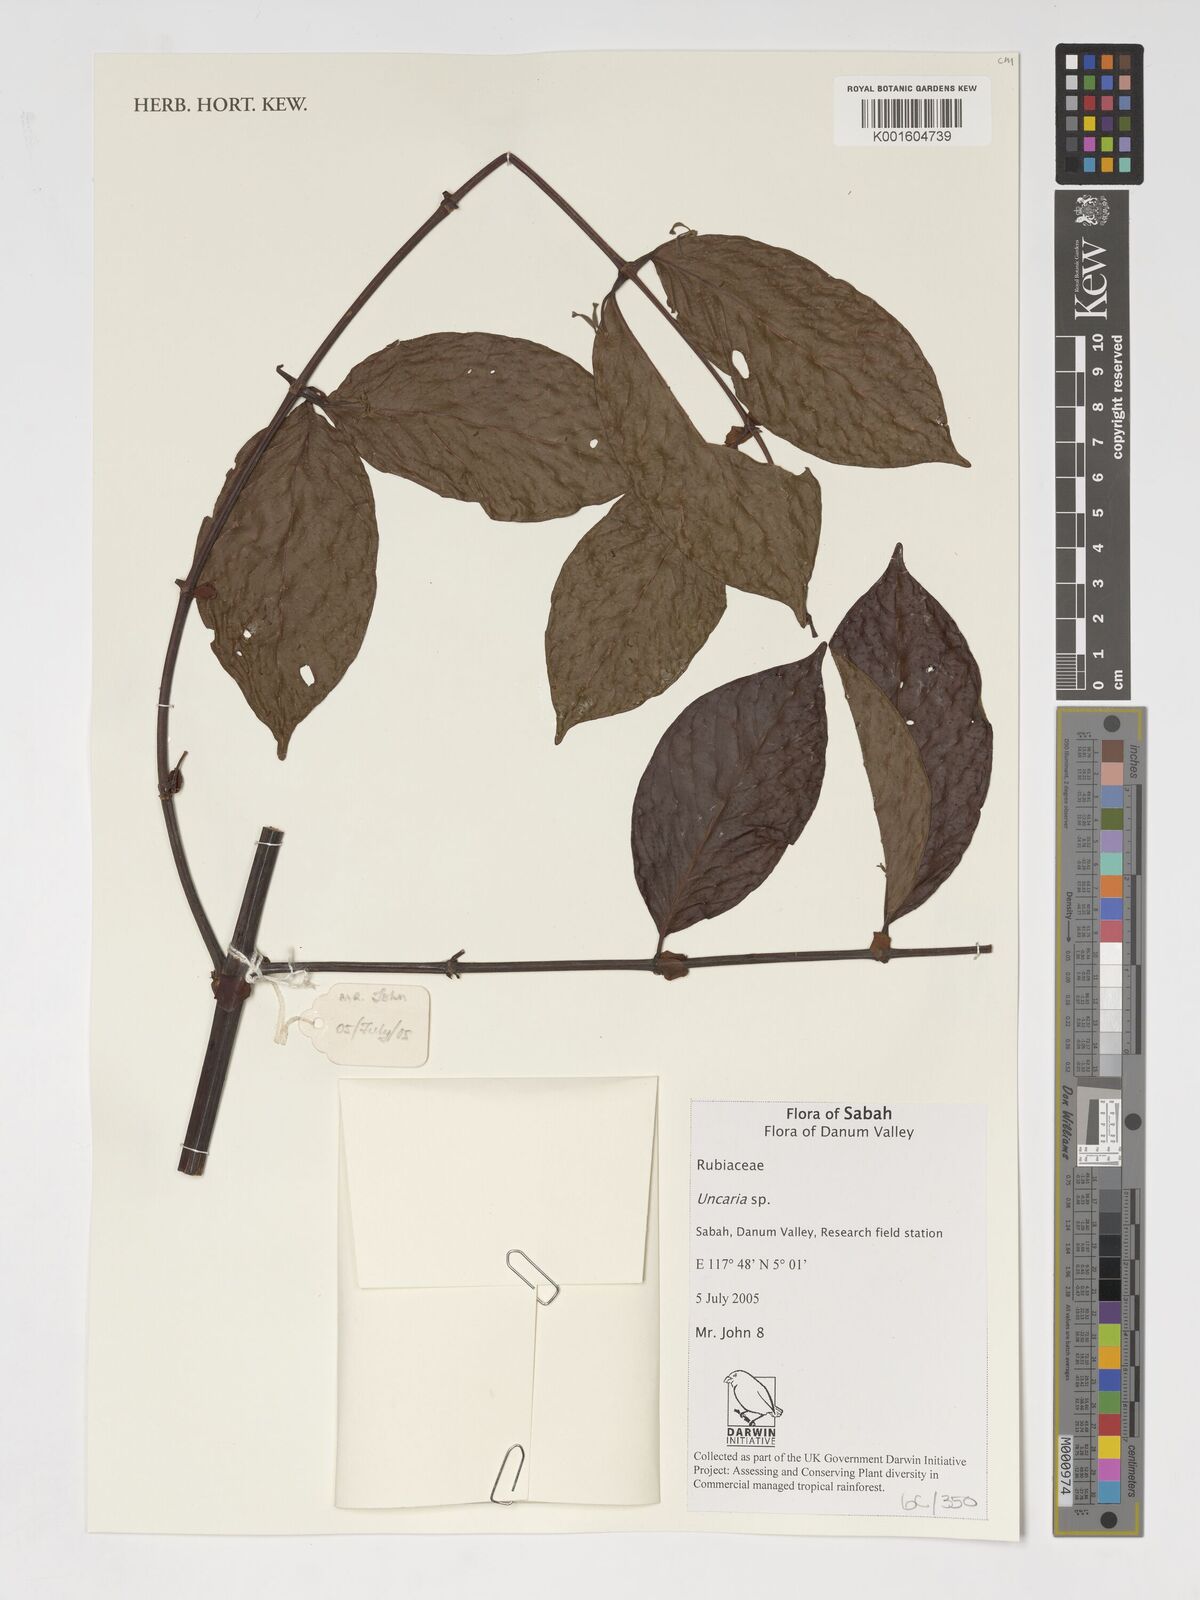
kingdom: Plantae
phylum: Tracheophyta
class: Magnoliopsida
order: Gentianales
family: Rubiaceae
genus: Uncaria
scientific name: Uncaria
